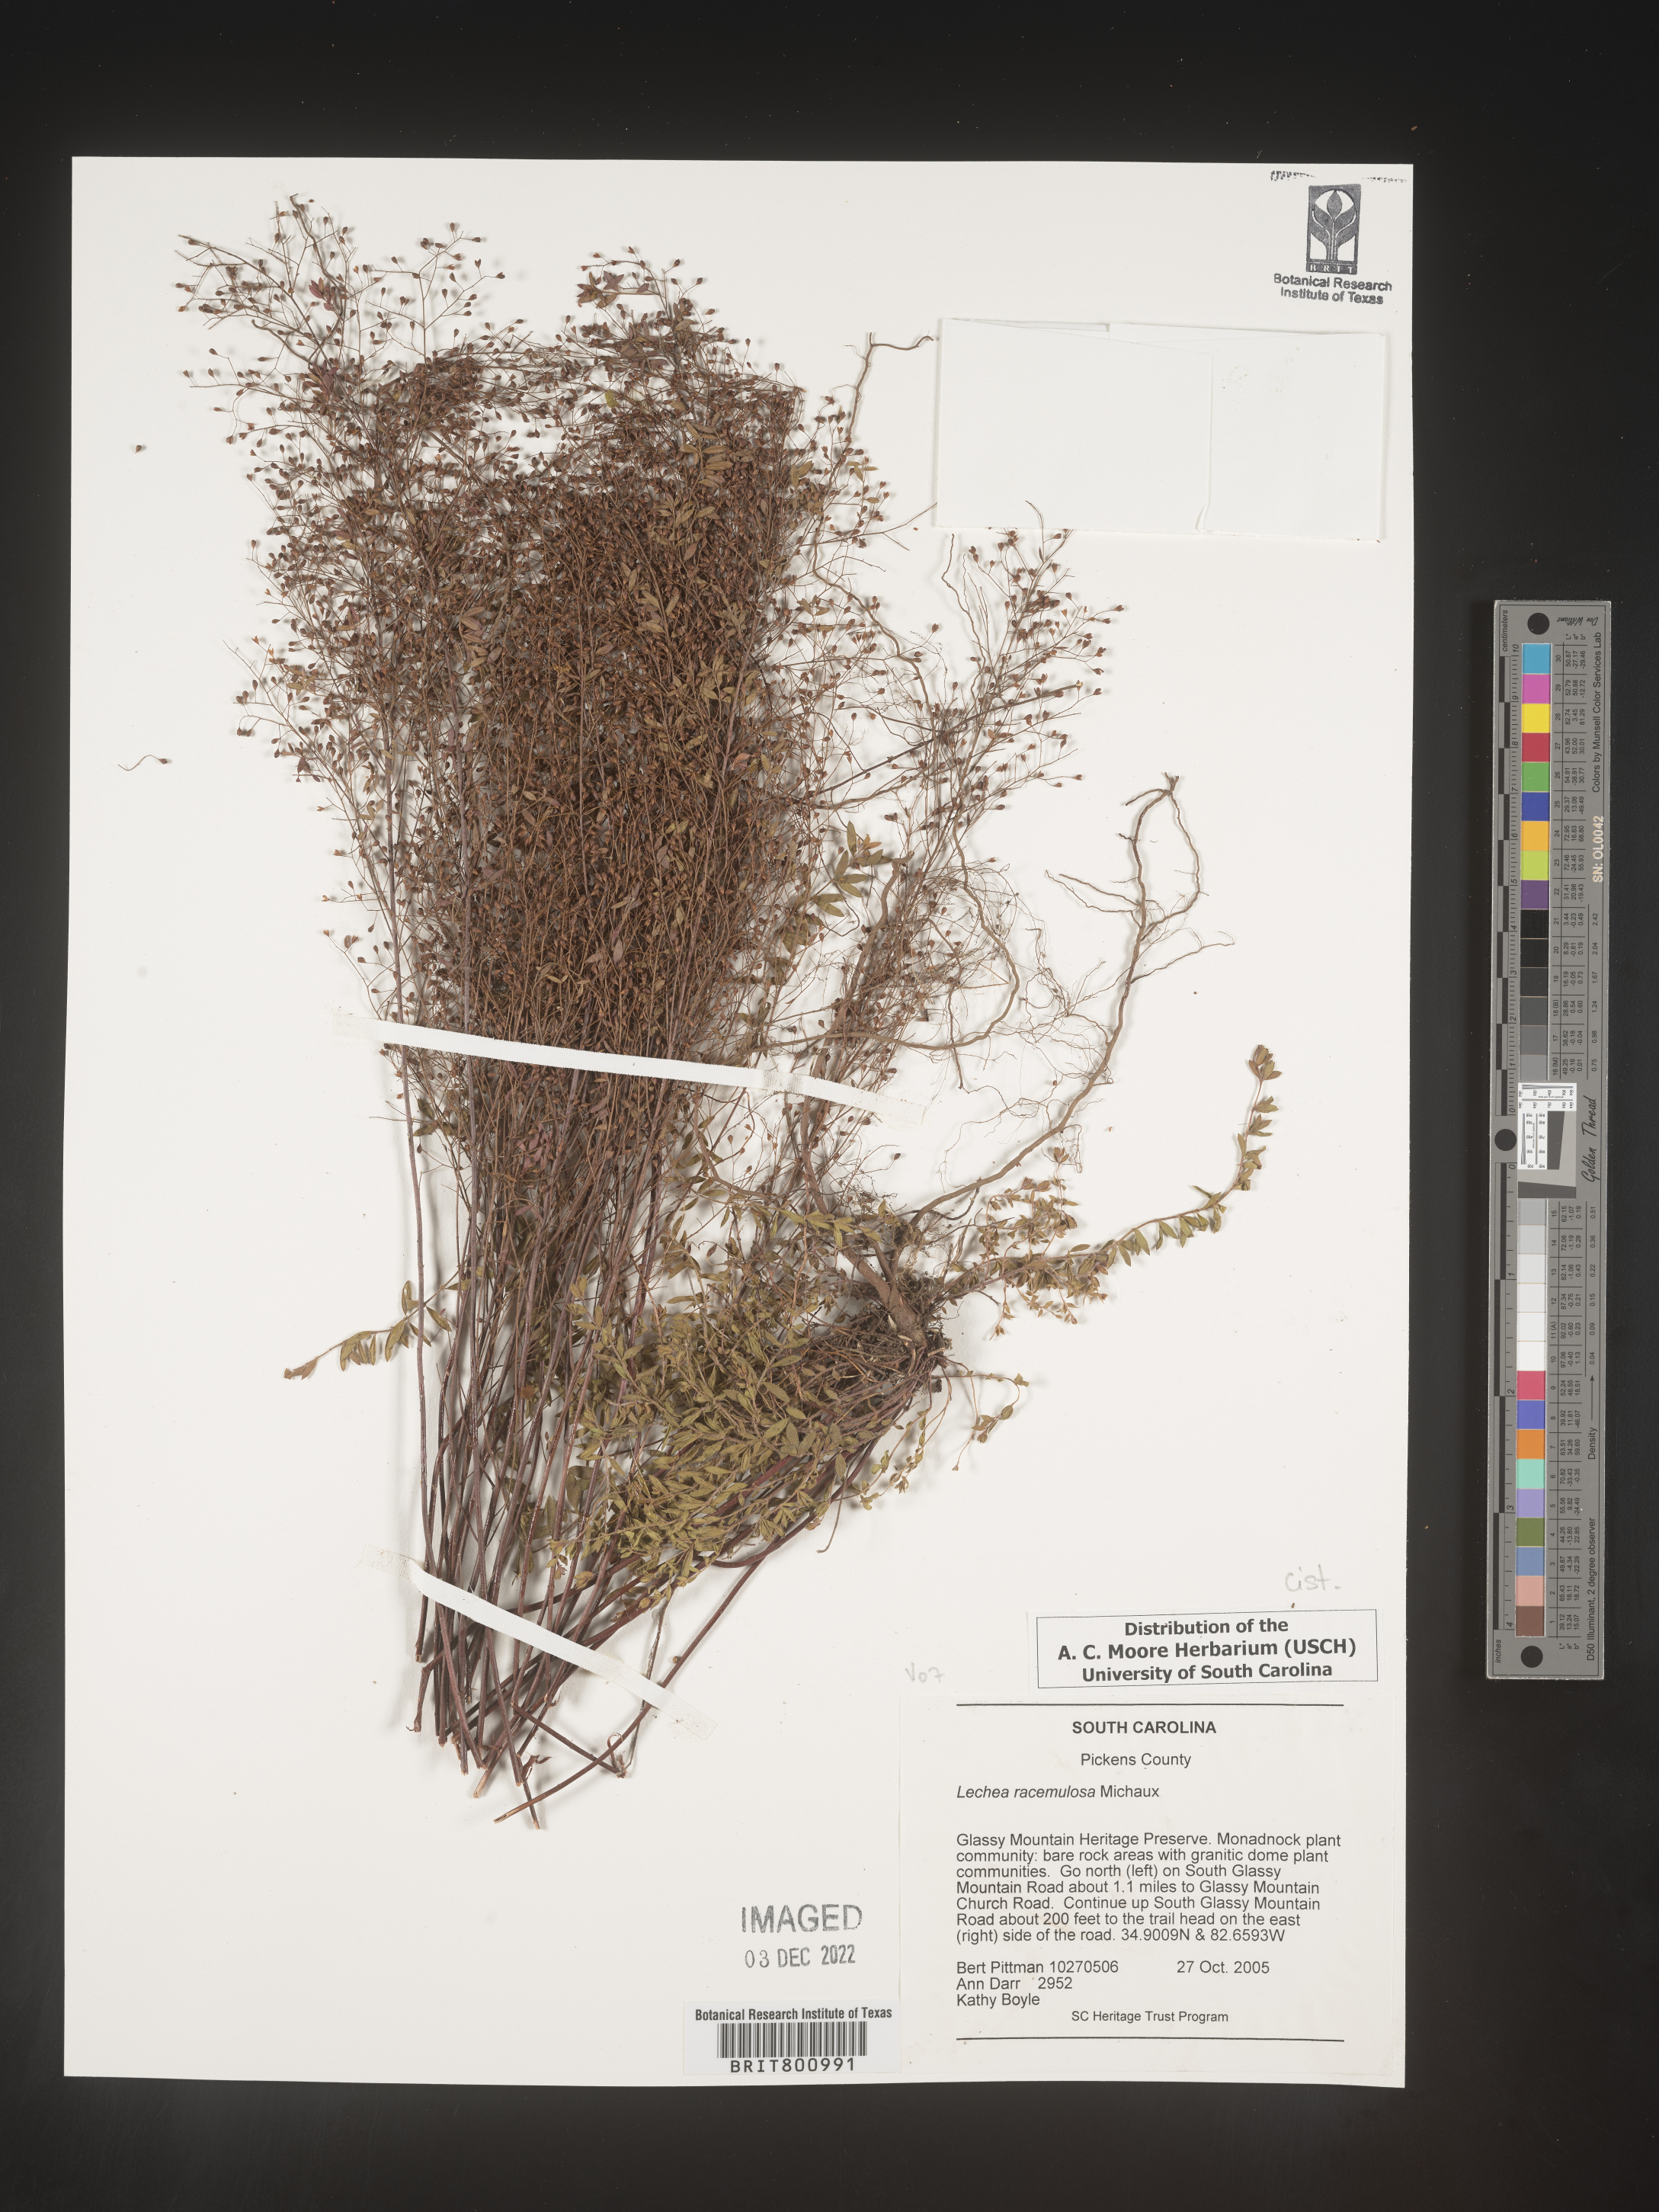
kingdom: Plantae
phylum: Tracheophyta
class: Magnoliopsida
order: Malvales
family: Cistaceae
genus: Lechea
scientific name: Lechea racemulosa
